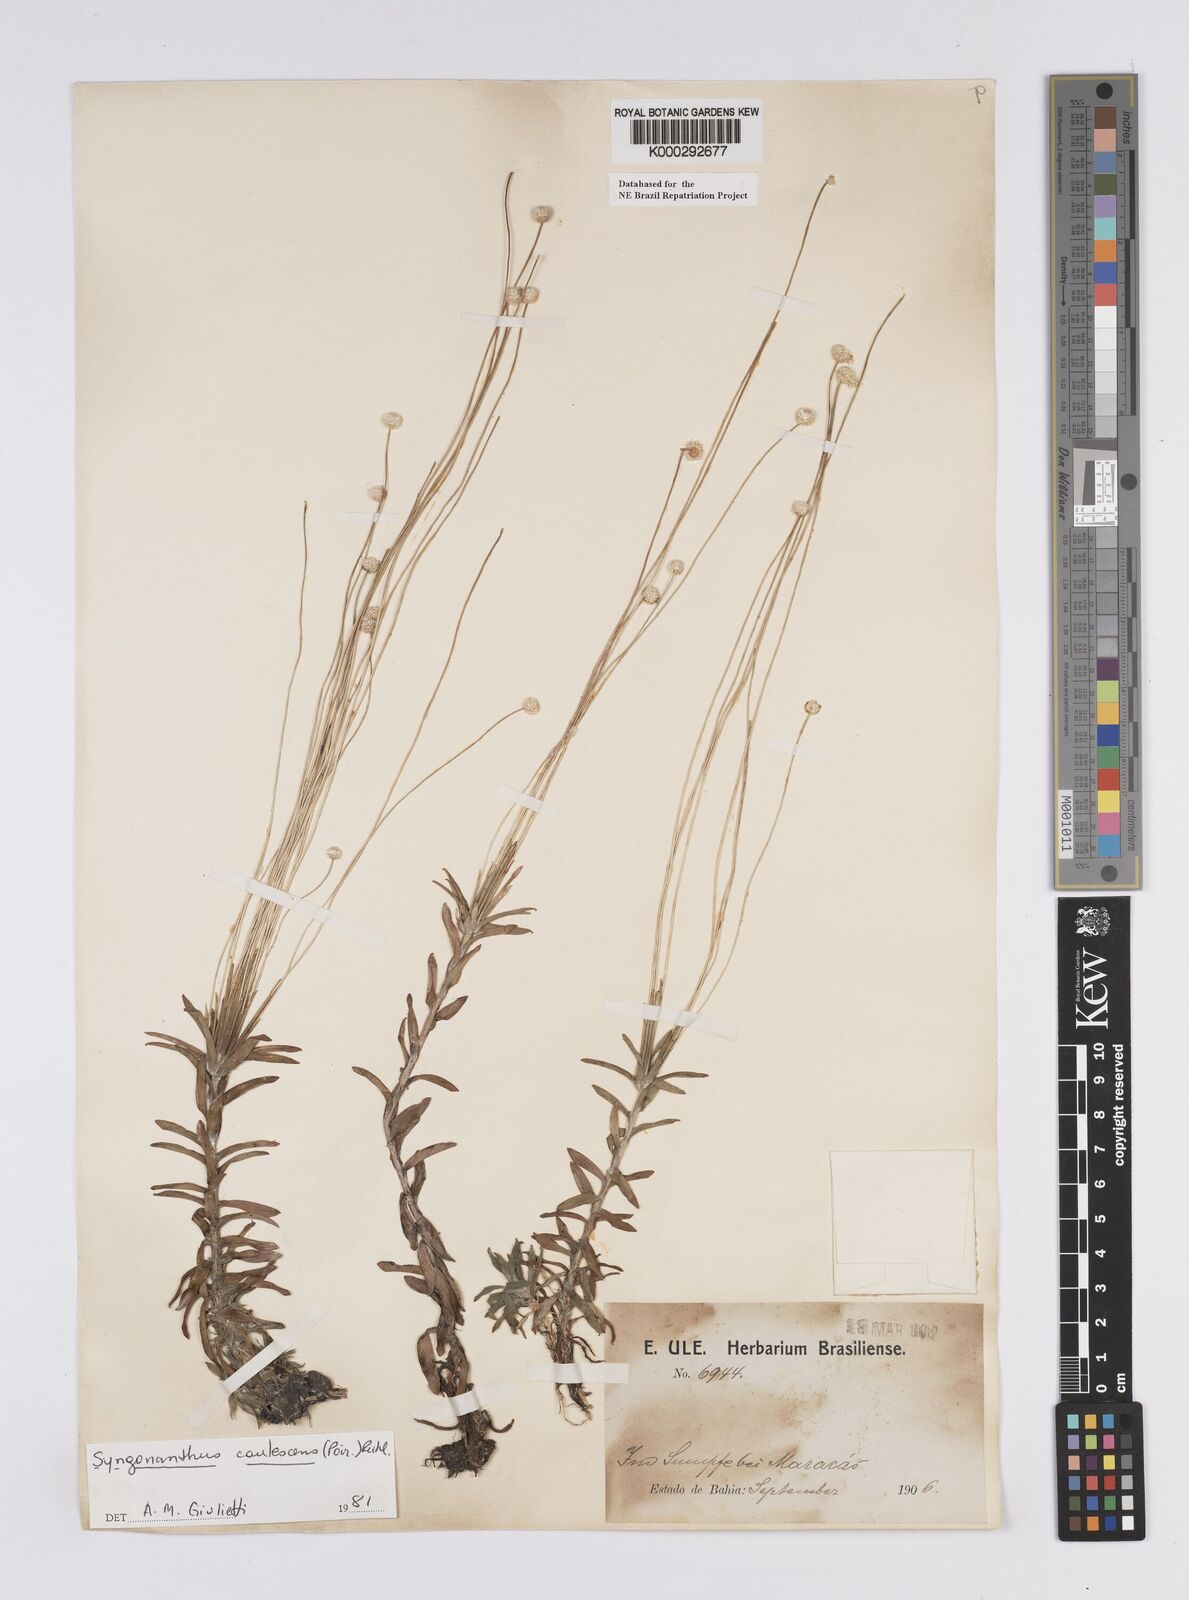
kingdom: Plantae
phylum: Tracheophyta
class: Liliopsida
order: Poales
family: Eriocaulaceae
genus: Syngonanthus
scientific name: Syngonanthus caulescens
